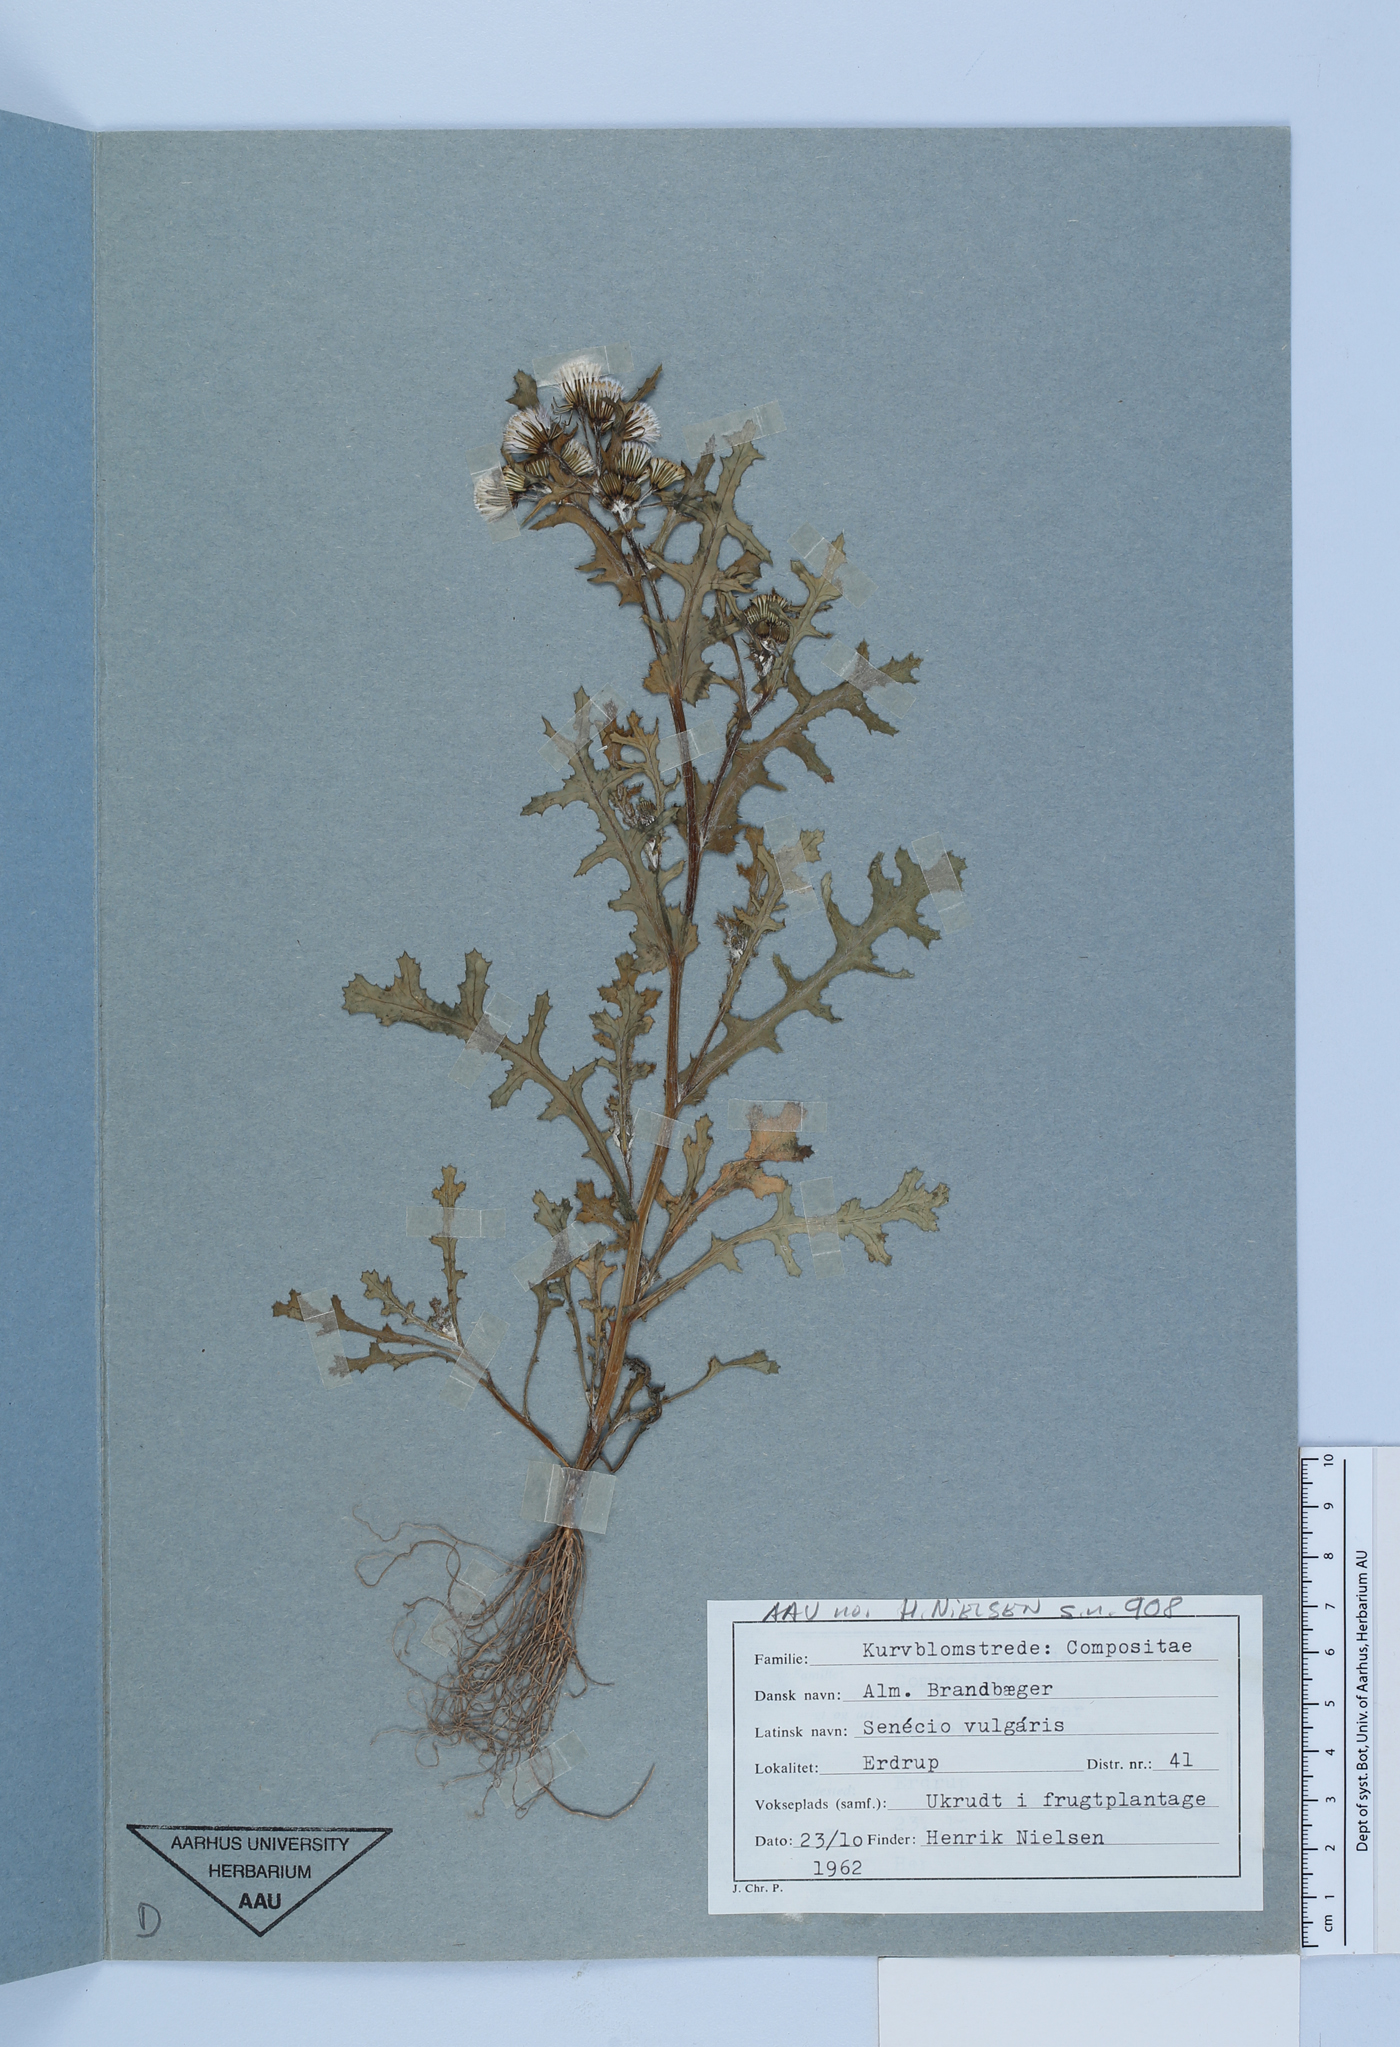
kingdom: Plantae
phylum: Tracheophyta
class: Magnoliopsida
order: Asterales
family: Asteraceae
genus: Senecio
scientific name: Senecio vulgaris
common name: Old-man-in-the-spring
